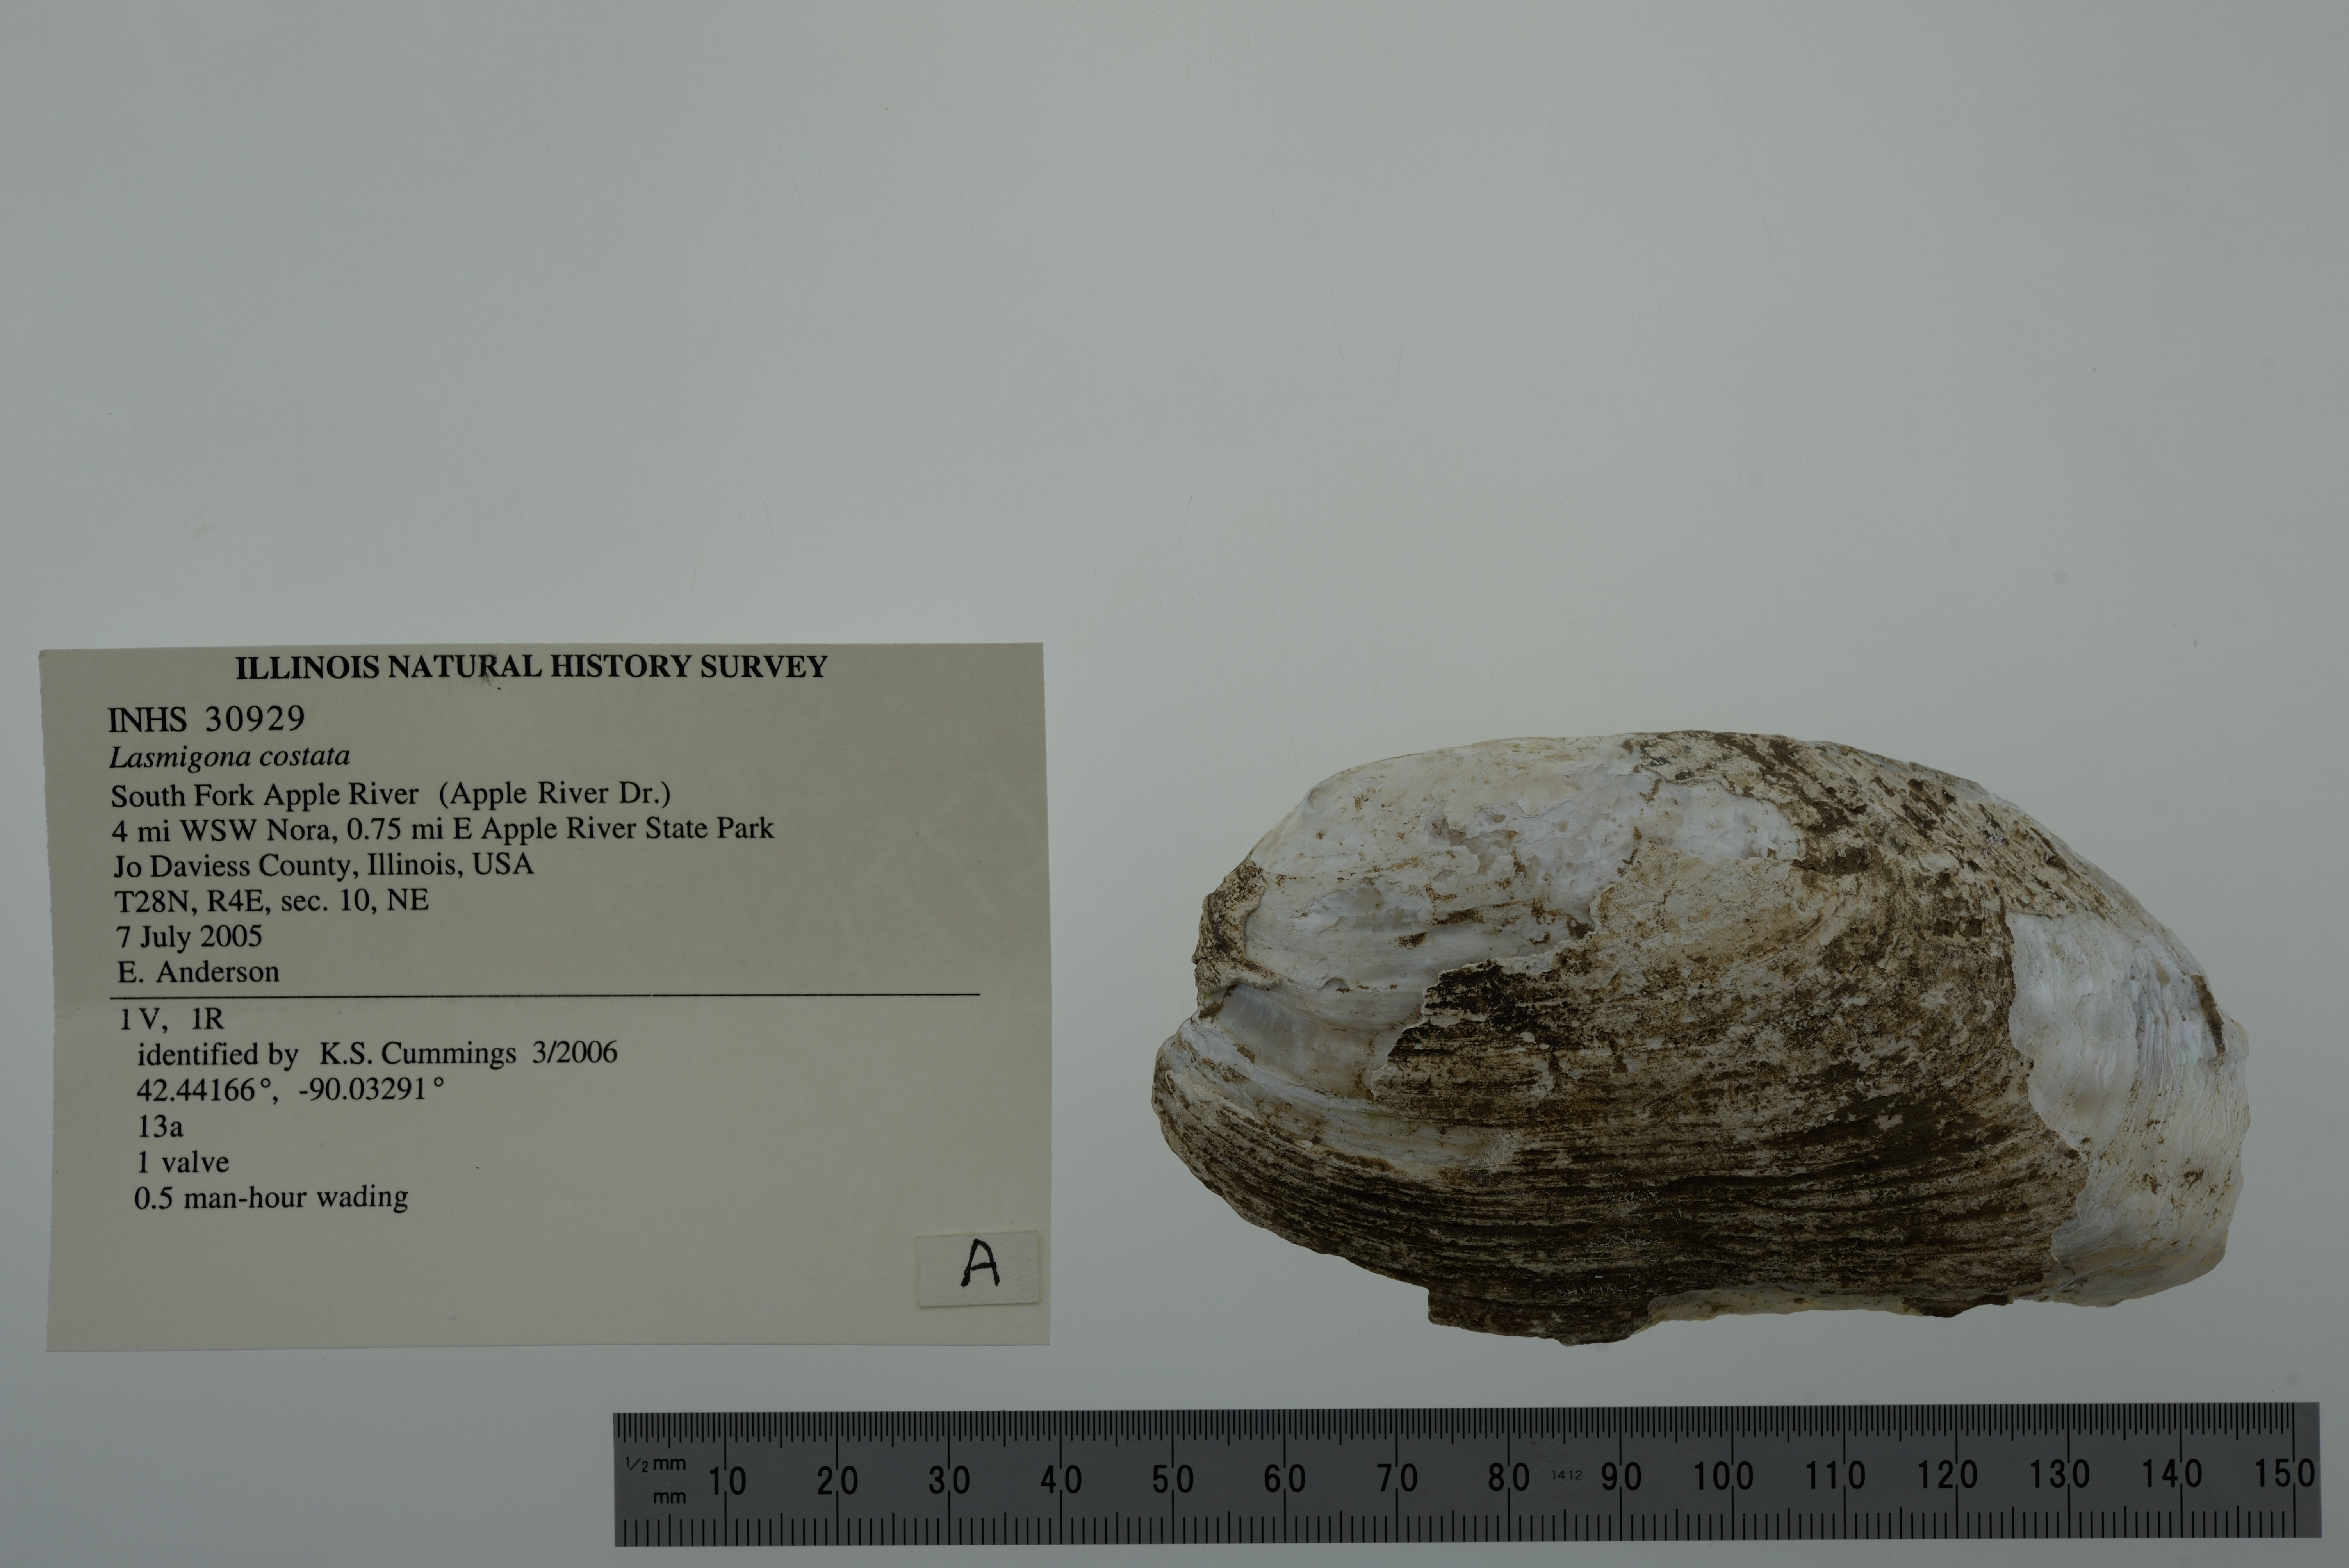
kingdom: Animalia
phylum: Mollusca
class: Bivalvia
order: Unionida
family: Unionidae
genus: Lasmigona
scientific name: Lasmigona costata
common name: Flutedshell
